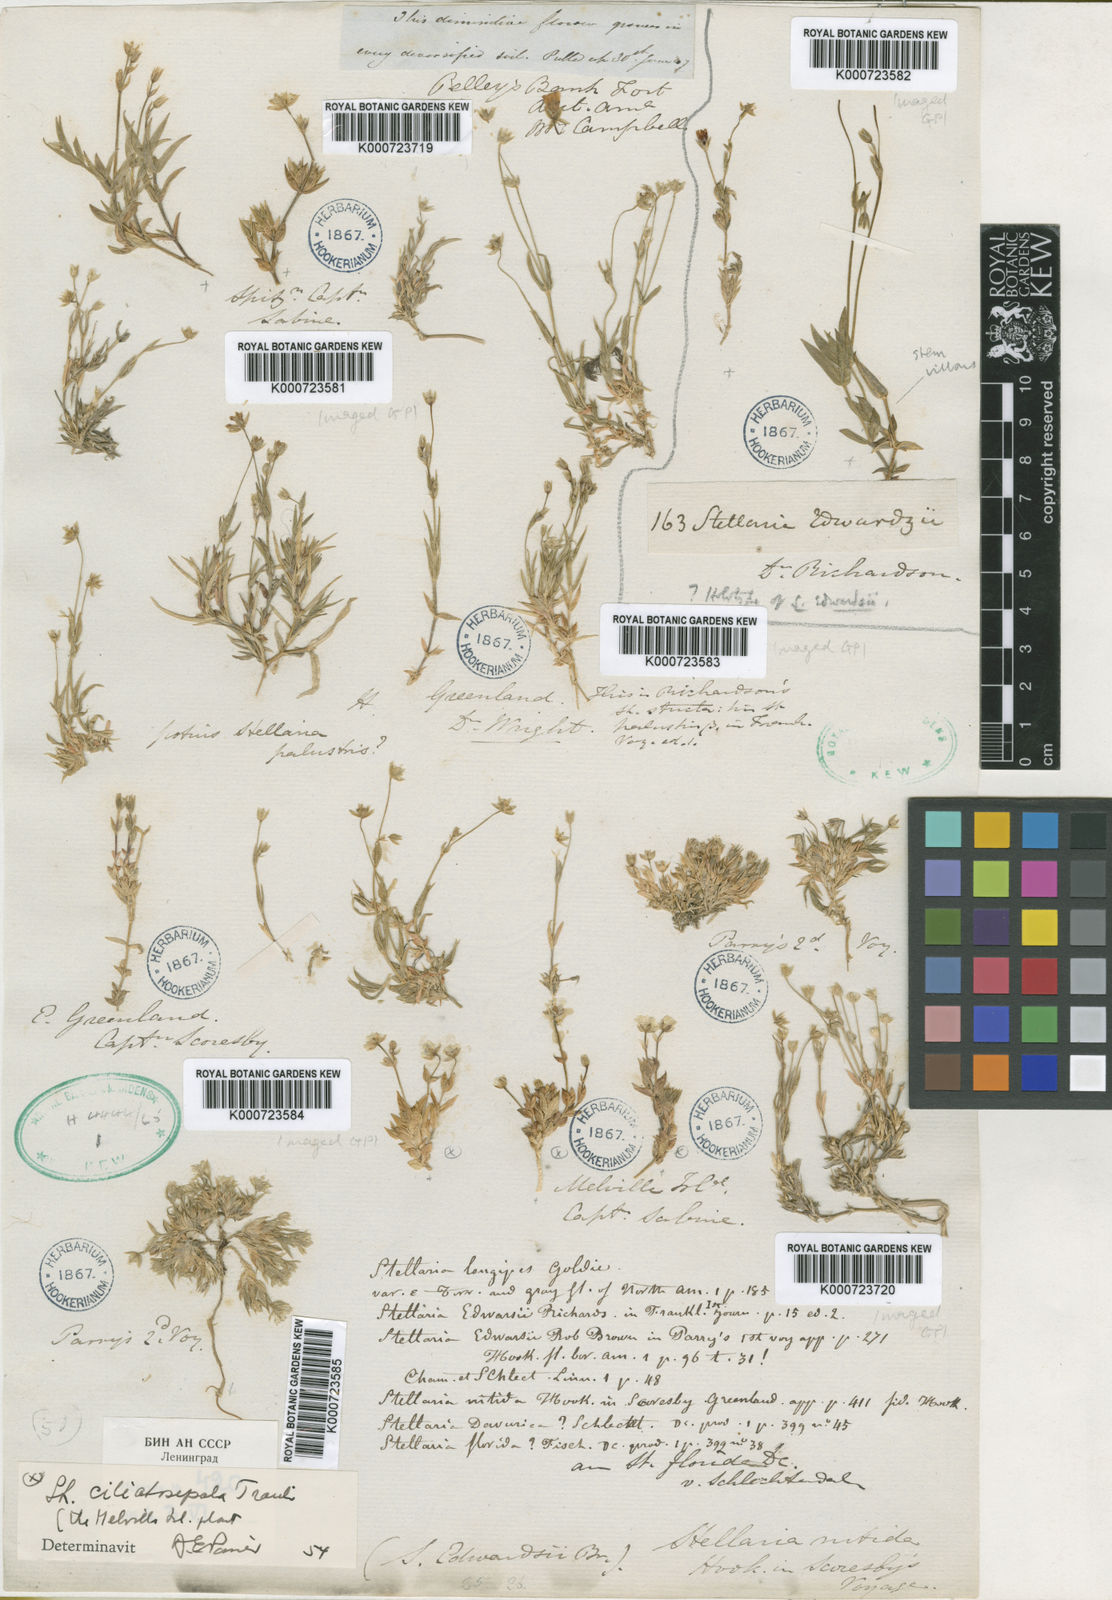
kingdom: Plantae
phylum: Tracheophyta
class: Magnoliopsida
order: Caryophyllales
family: Caryophyllaceae
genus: Stellaria
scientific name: Stellaria longipes
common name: Goldie's starwort
